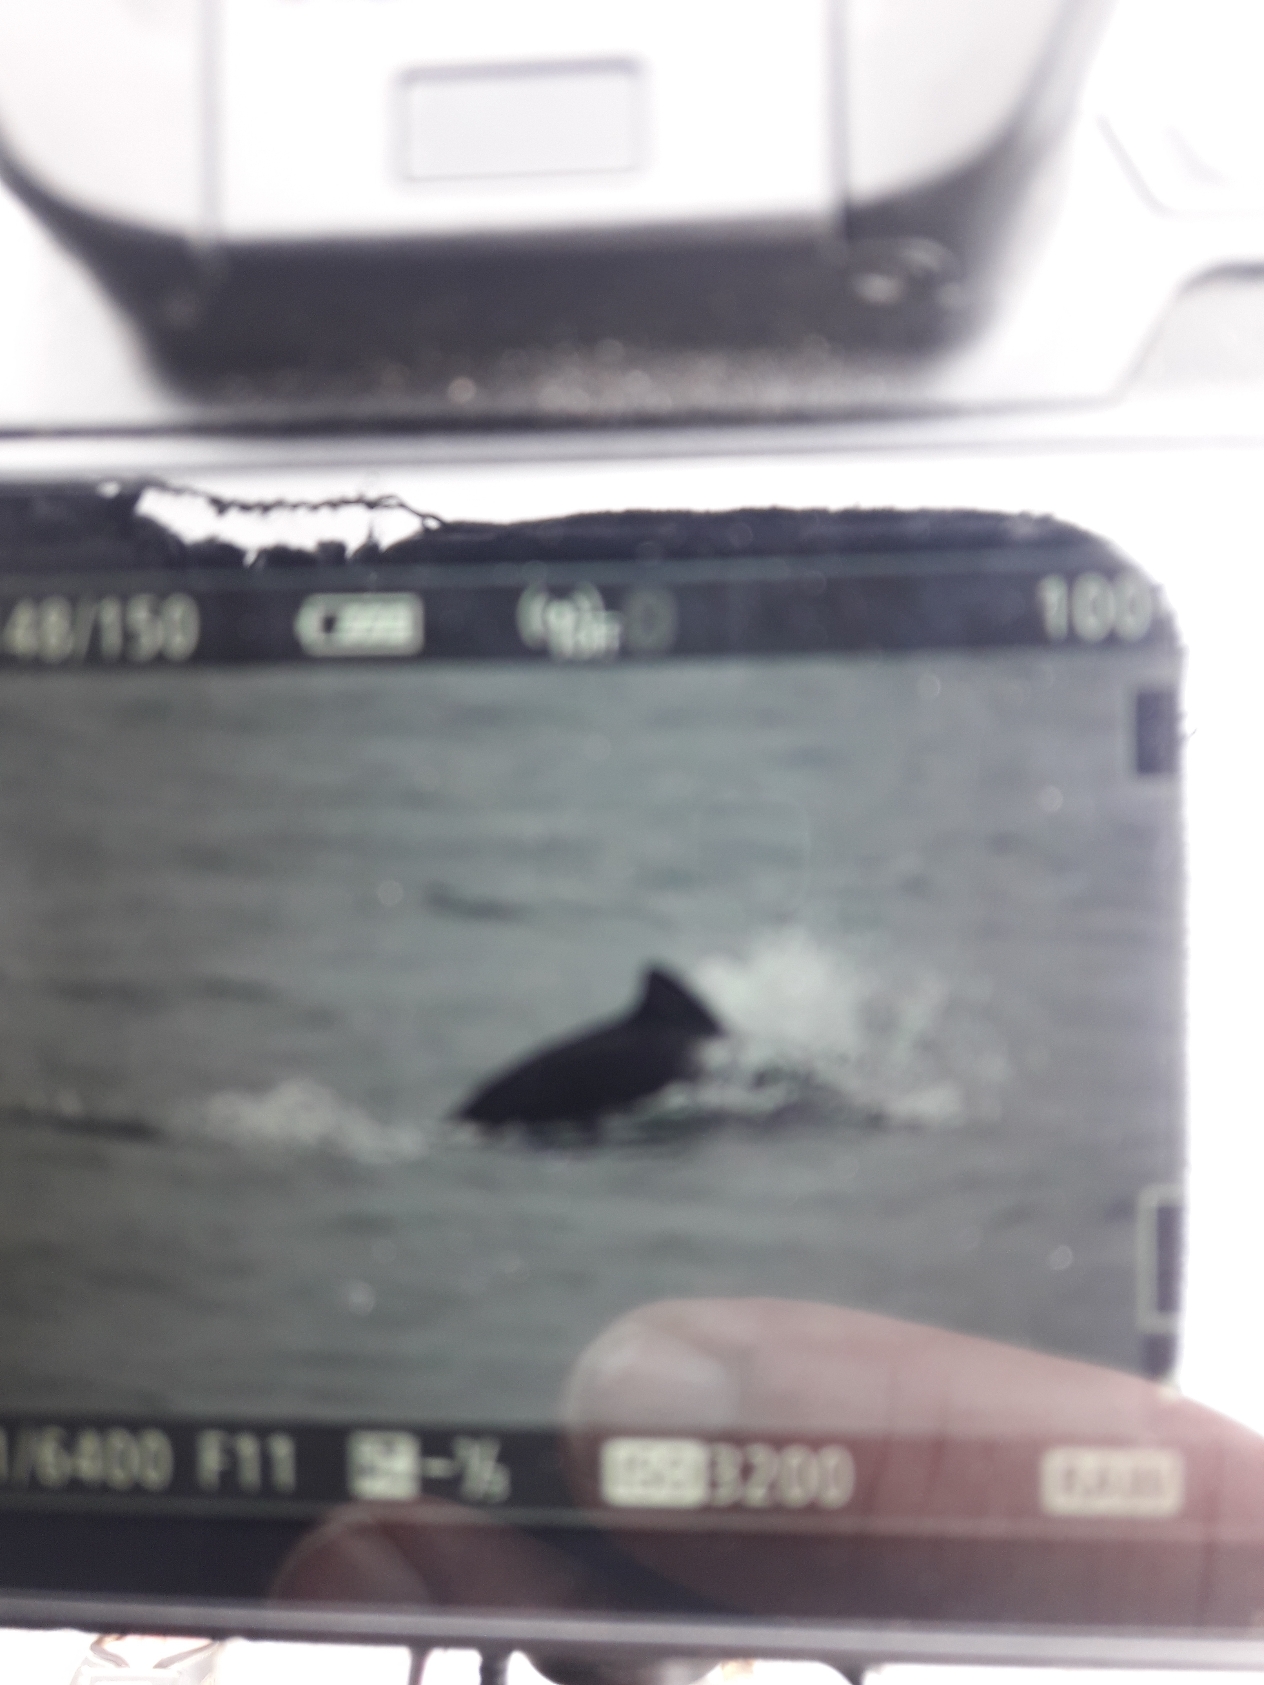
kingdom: Animalia
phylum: Chordata
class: Mammalia
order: Cetacea
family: Phocoenidae
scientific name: Phocoenidae
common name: Marsvin
